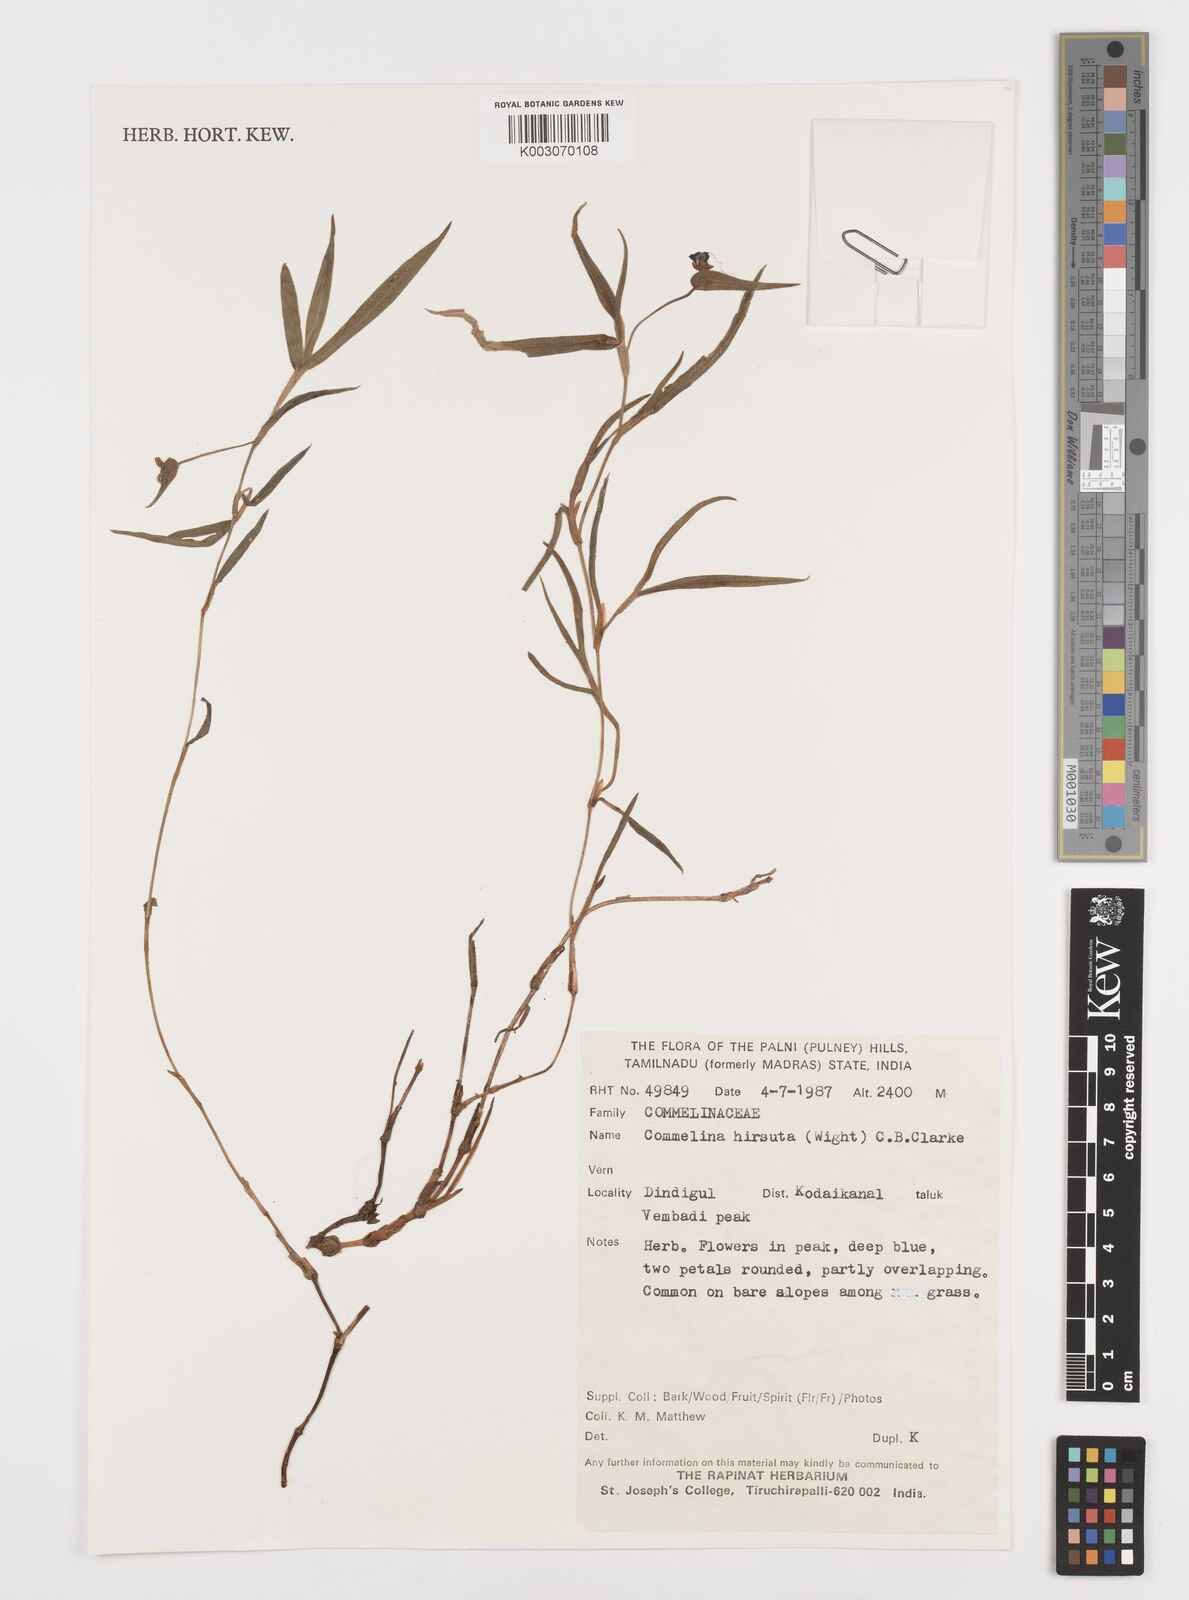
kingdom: Plantae
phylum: Tracheophyta
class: Liliopsida
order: Commelinales
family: Commelinaceae
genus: Commelina
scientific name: Commelina hirsuta
